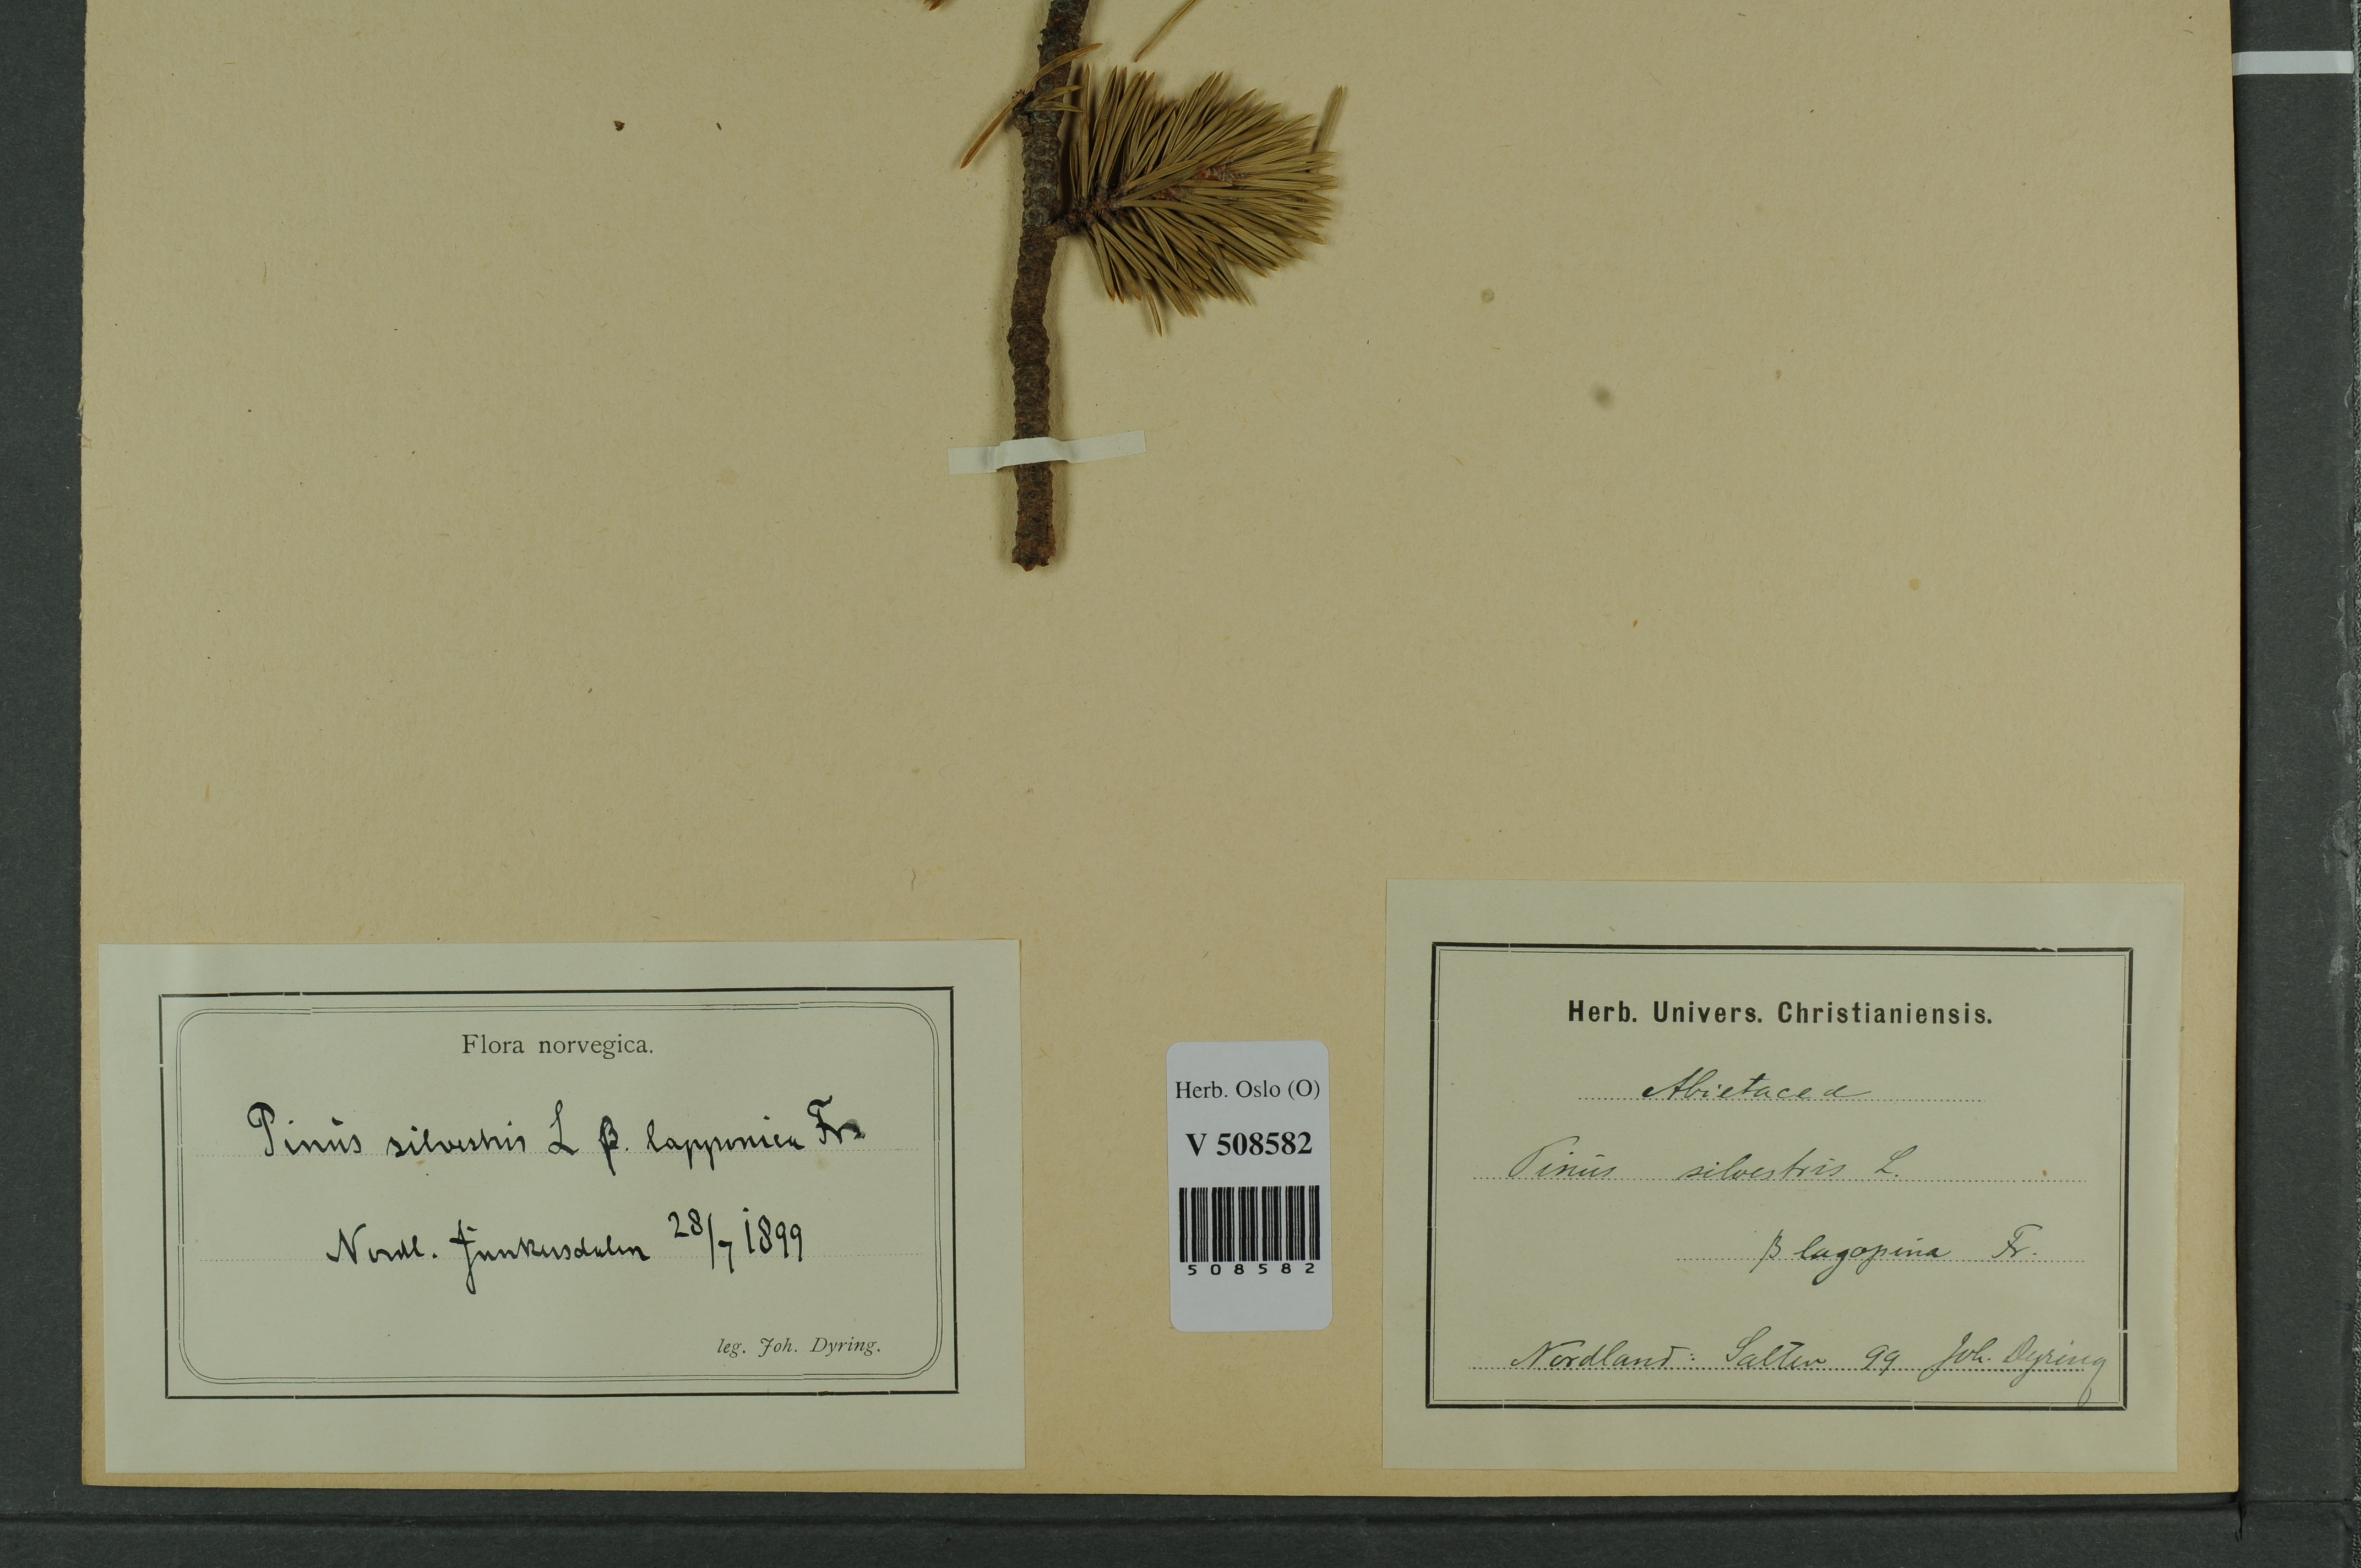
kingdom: Plantae
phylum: Tracheophyta
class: Pinopsida
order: Pinales
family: Pinaceae
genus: Pinus
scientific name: Pinus sylvestris
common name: Scots pine
